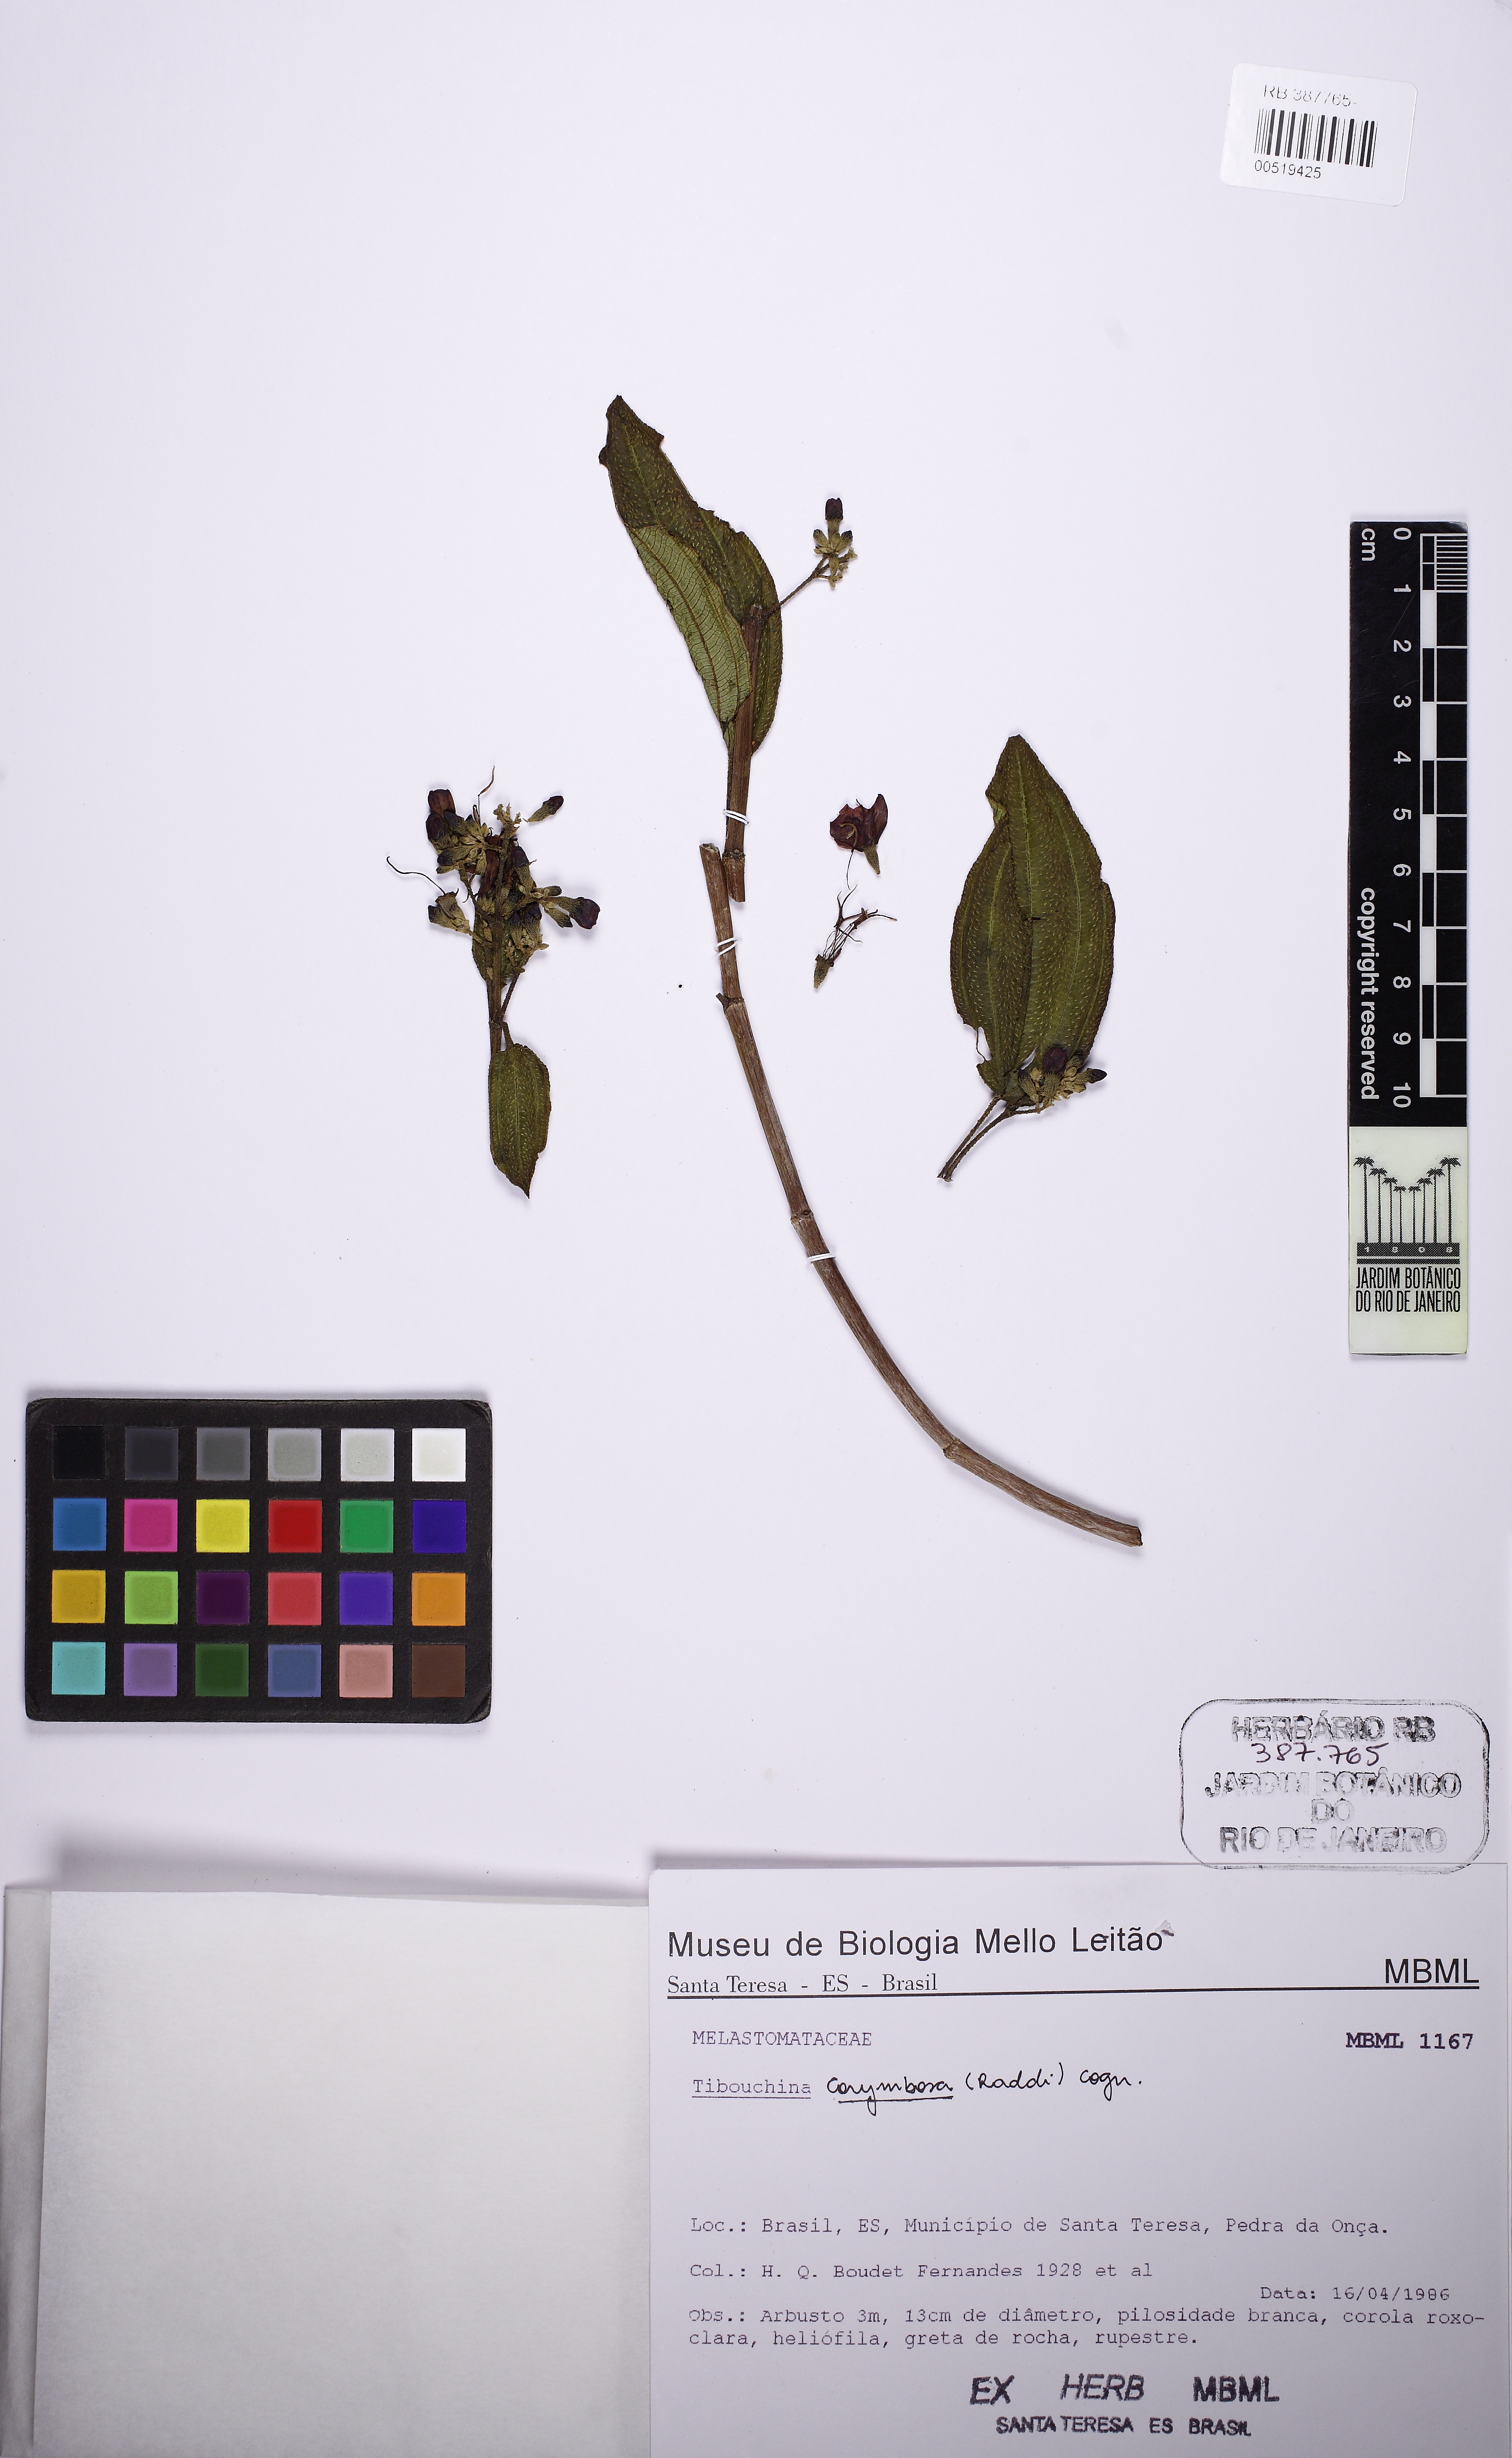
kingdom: Plantae
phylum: Tracheophyta
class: Magnoliopsida
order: Myrtales
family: Melastomataceae
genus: Pleroma
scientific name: Pleroma vimineum
